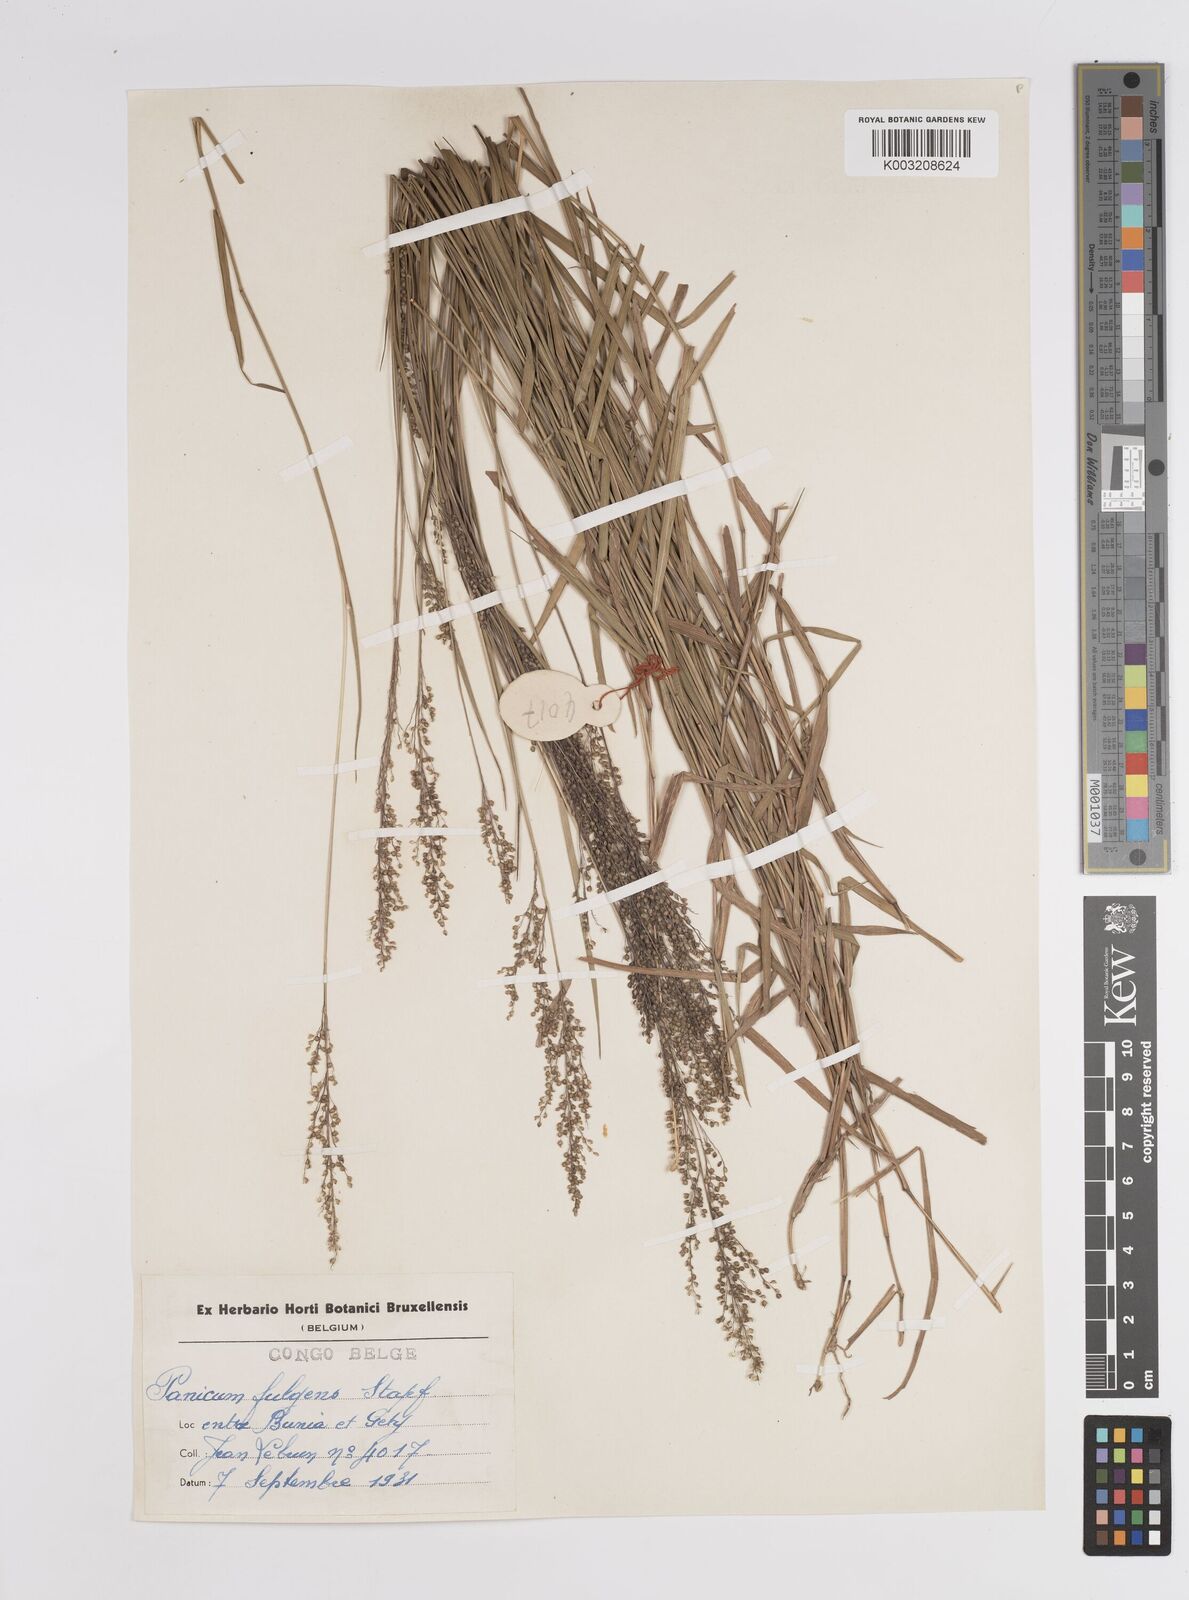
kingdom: Plantae
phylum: Tracheophyta
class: Liliopsida
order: Poales
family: Poaceae
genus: Trichanthecium
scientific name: Trichanthecium nervatum
